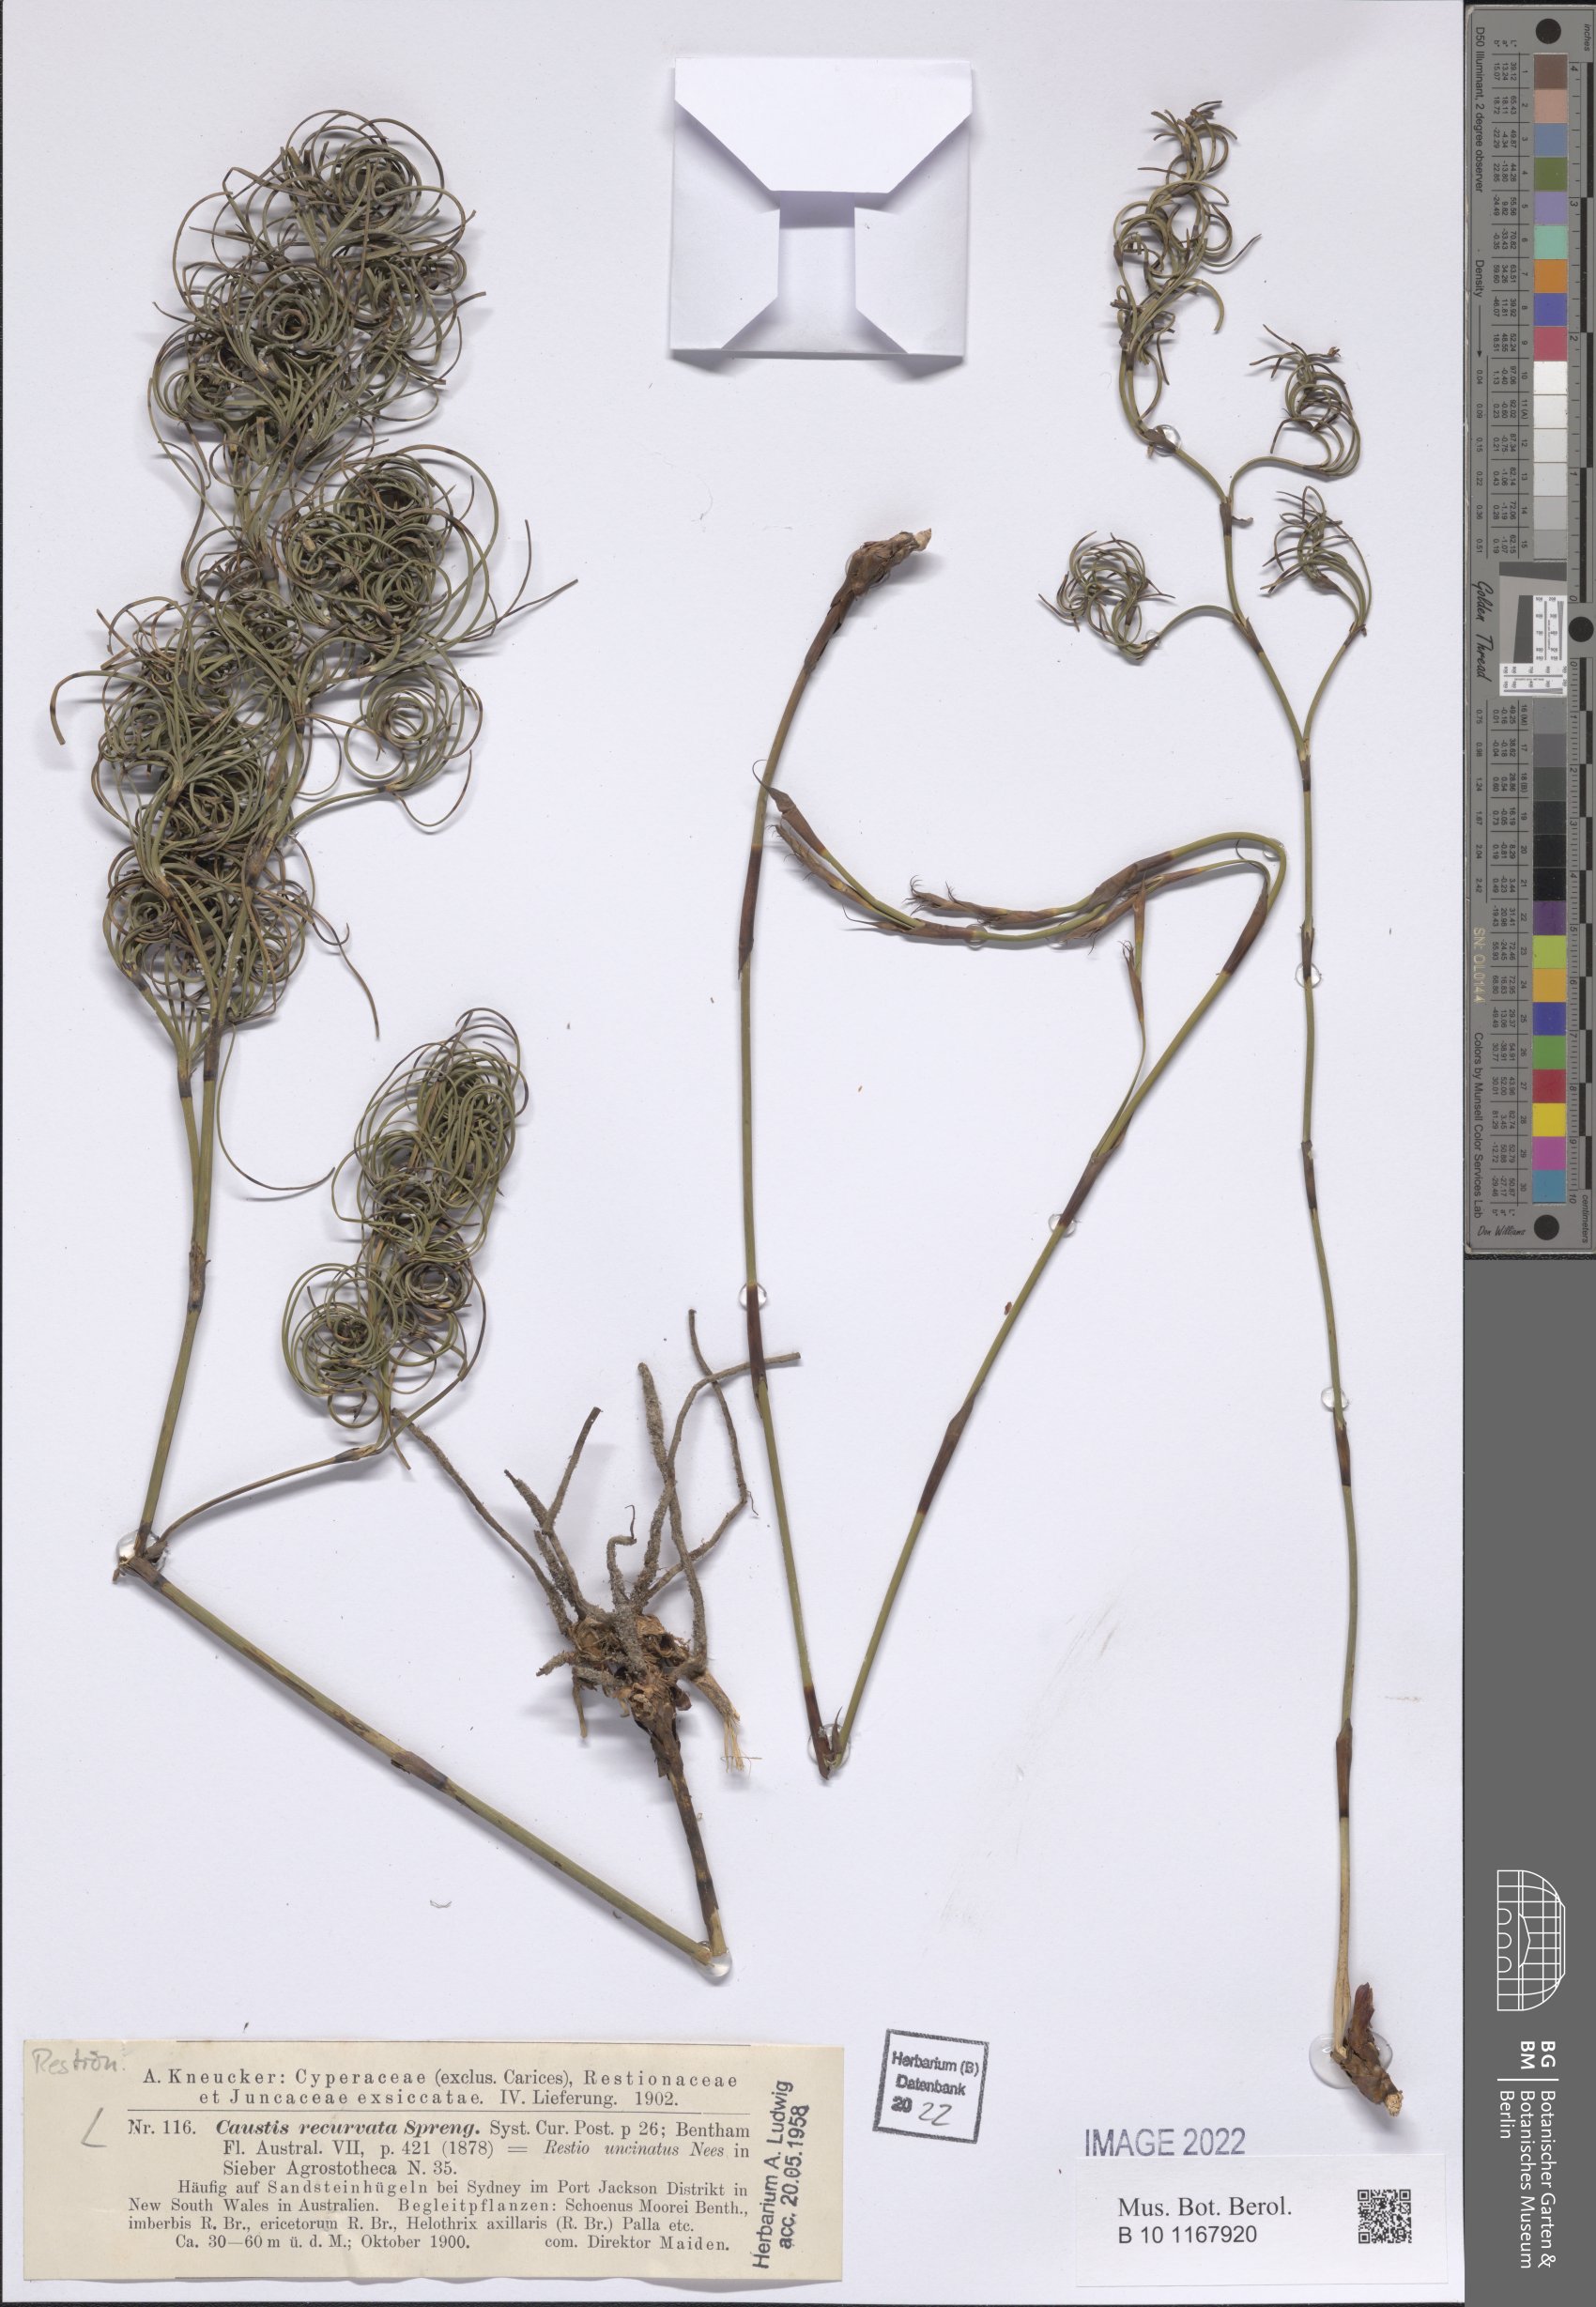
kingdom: Plantae
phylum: Tracheophyta
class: Liliopsida
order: Poales
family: Cyperaceae
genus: Caustis
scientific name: Caustis recurvata
